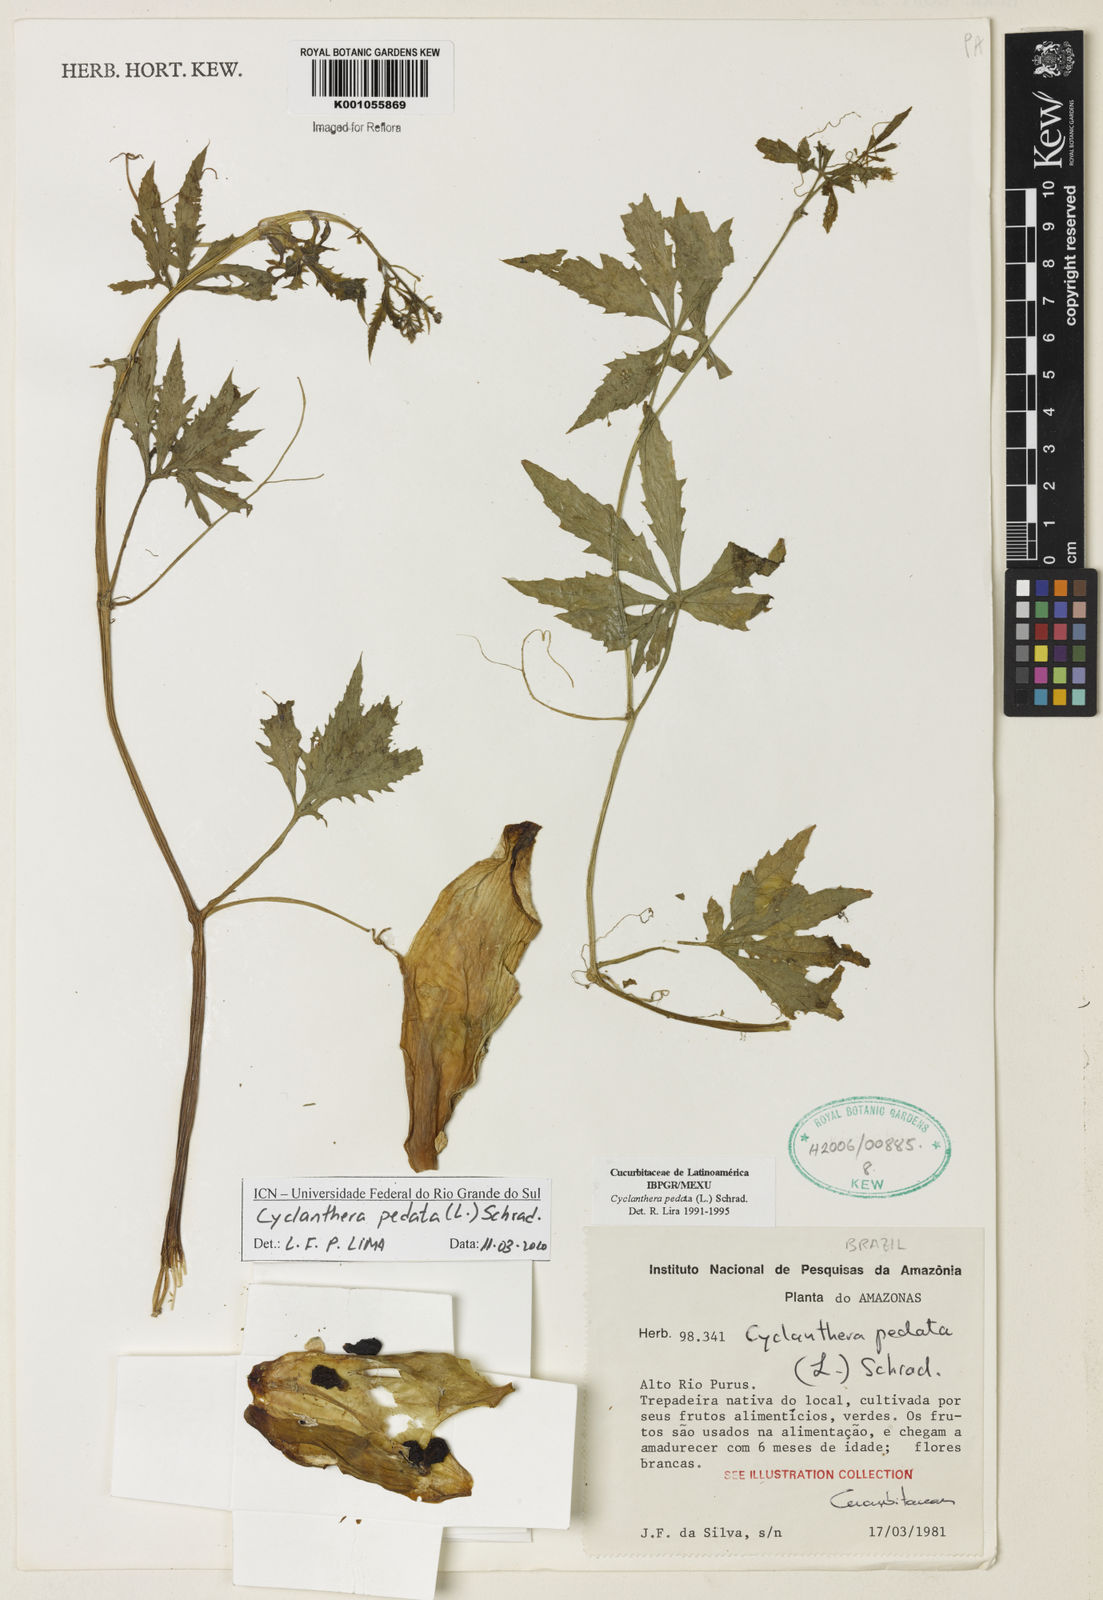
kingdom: Plantae
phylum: Tracheophyta
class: Magnoliopsida
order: Cucurbitales
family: Cucurbitaceae
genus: Cyclanthera
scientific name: Cyclanthera pedata
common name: Slipper goard
